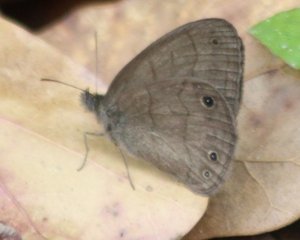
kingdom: Animalia
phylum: Arthropoda
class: Insecta
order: Lepidoptera
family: Nymphalidae
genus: Euptychia
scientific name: Euptychia cymela
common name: Little Wood Satyr
